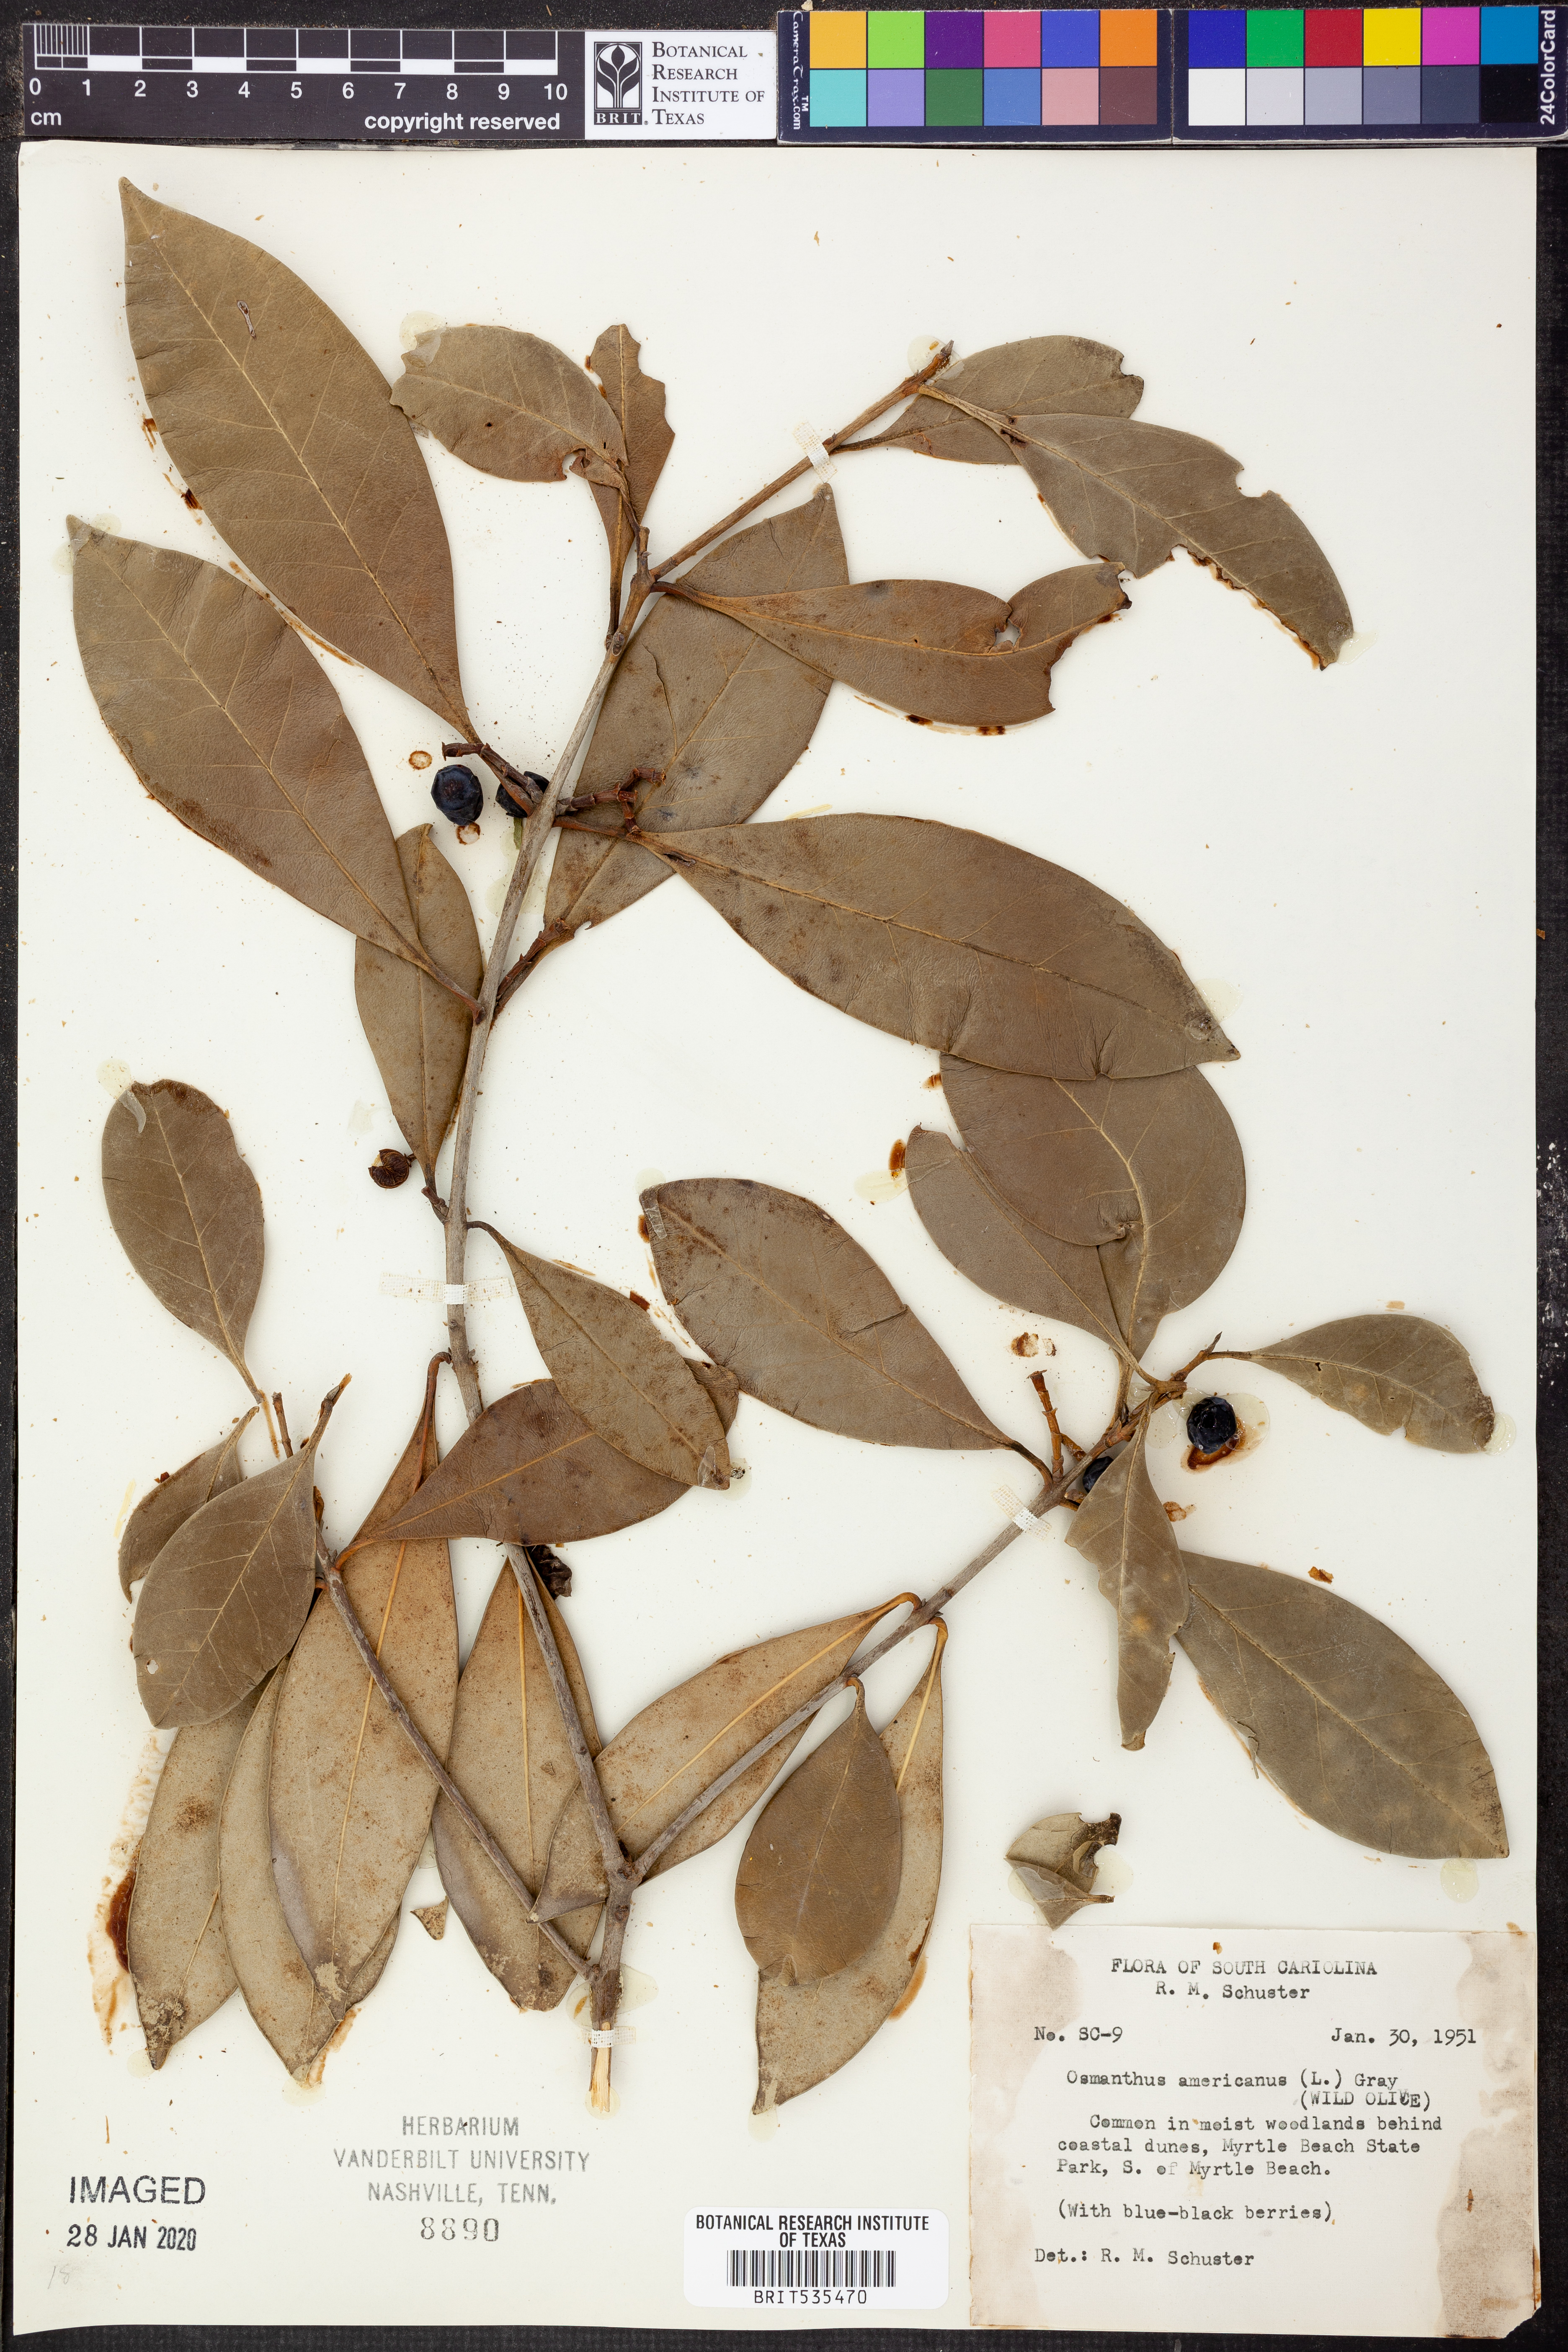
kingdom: Plantae
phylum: Tracheophyta
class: Magnoliopsida
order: Lamiales
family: Oleaceae
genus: Osmanthus
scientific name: Osmanthus americanus
